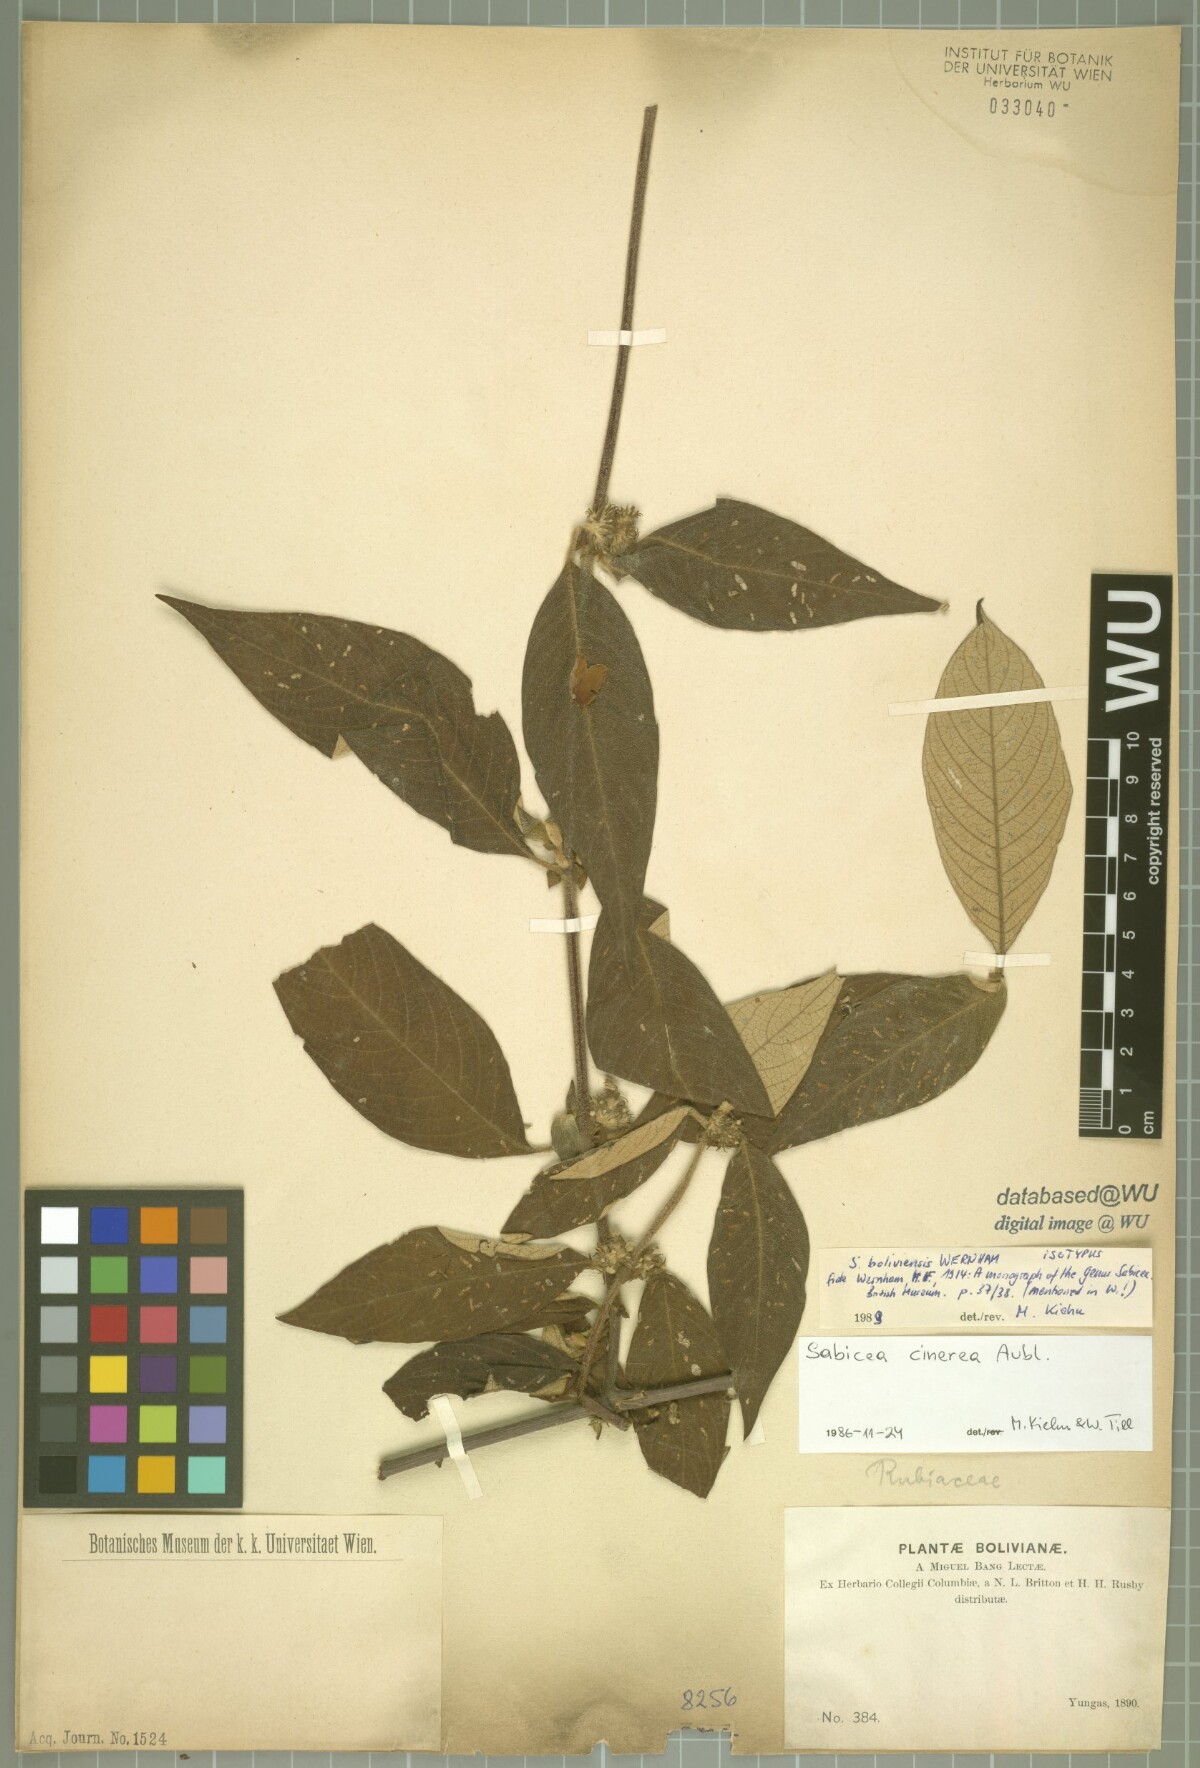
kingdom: Plantae
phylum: Tracheophyta
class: Magnoliopsida
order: Gentianales
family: Rubiaceae
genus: Sabicea
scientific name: Sabicea boliviensis
